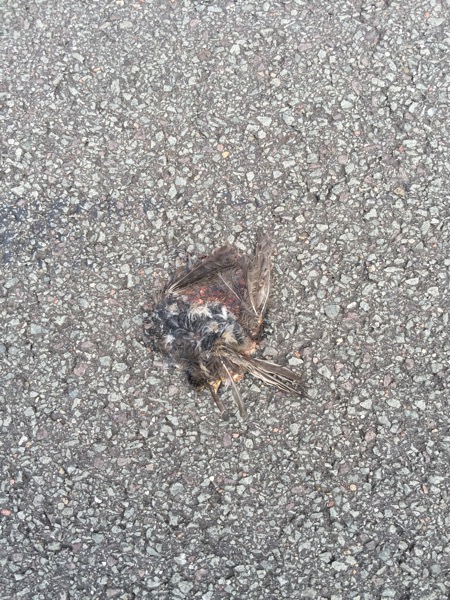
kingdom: Animalia
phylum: Chordata
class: Aves
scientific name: Aves
